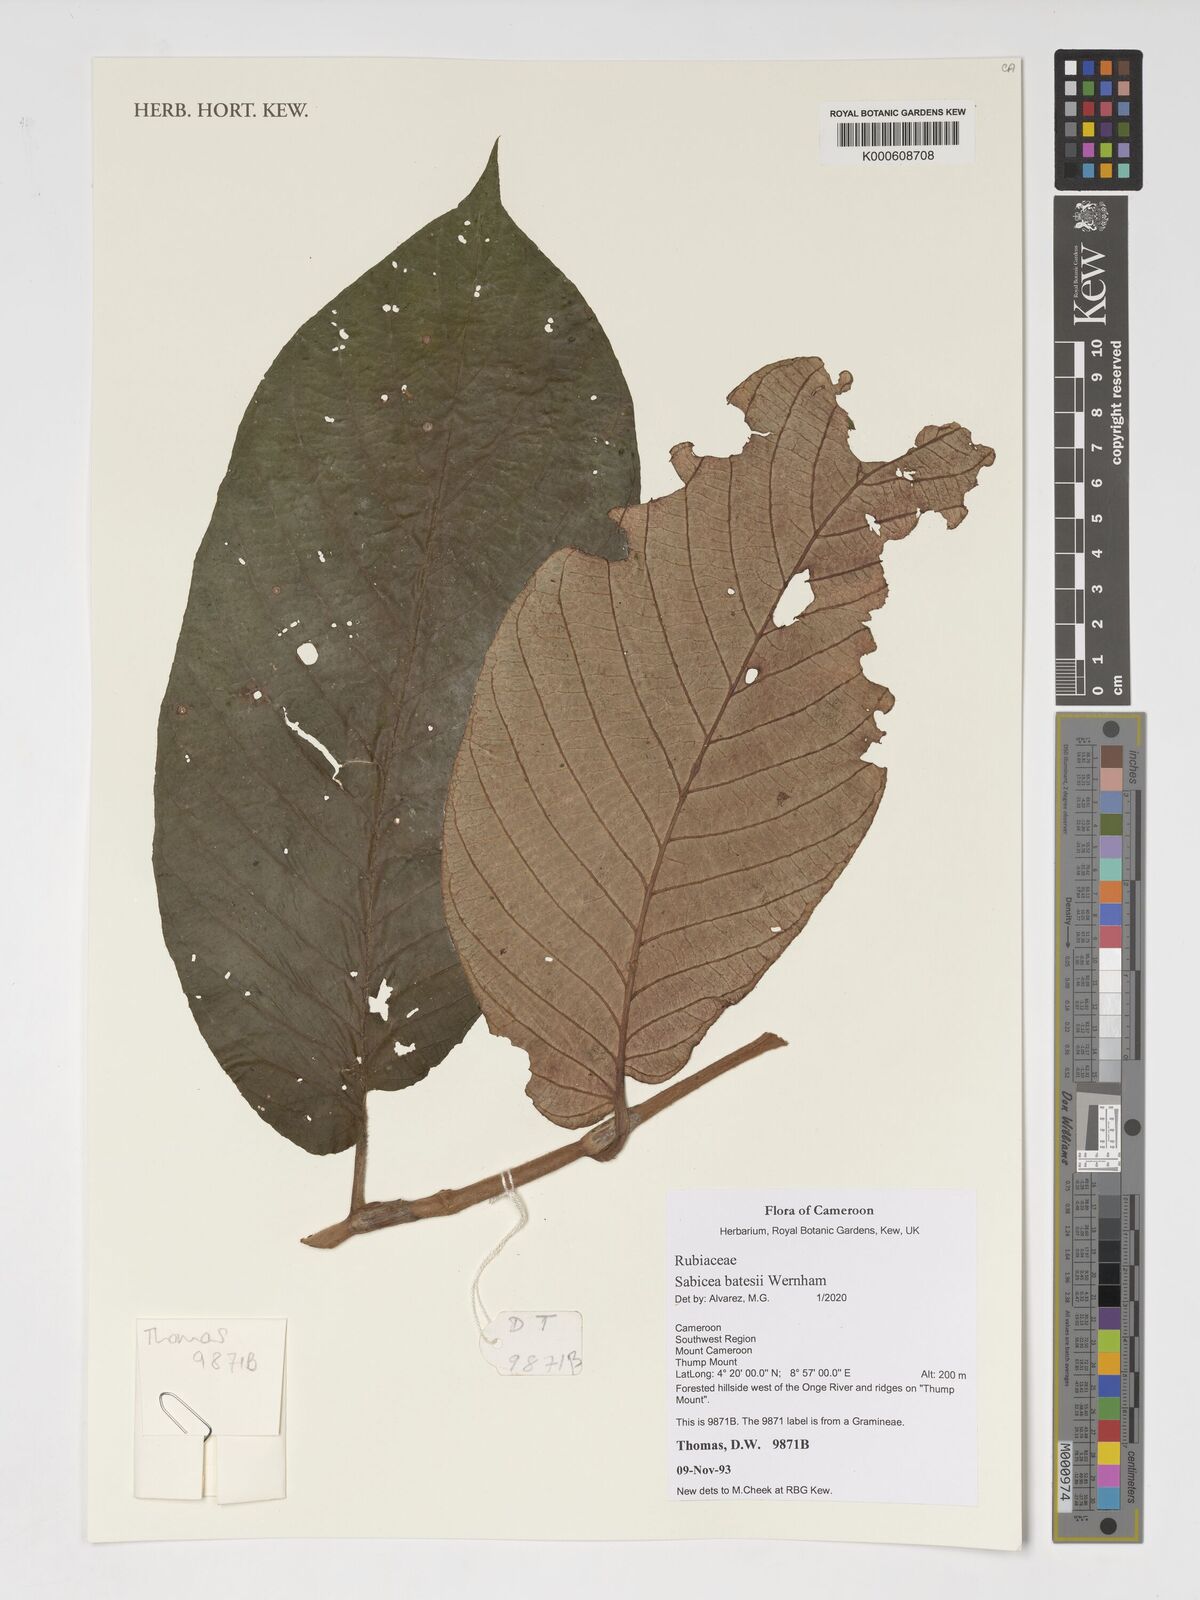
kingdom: Plantae
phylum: Tracheophyta
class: Magnoliopsida
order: Gentianales
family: Rubiaceae
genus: Sabicea
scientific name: Sabicea batesii
